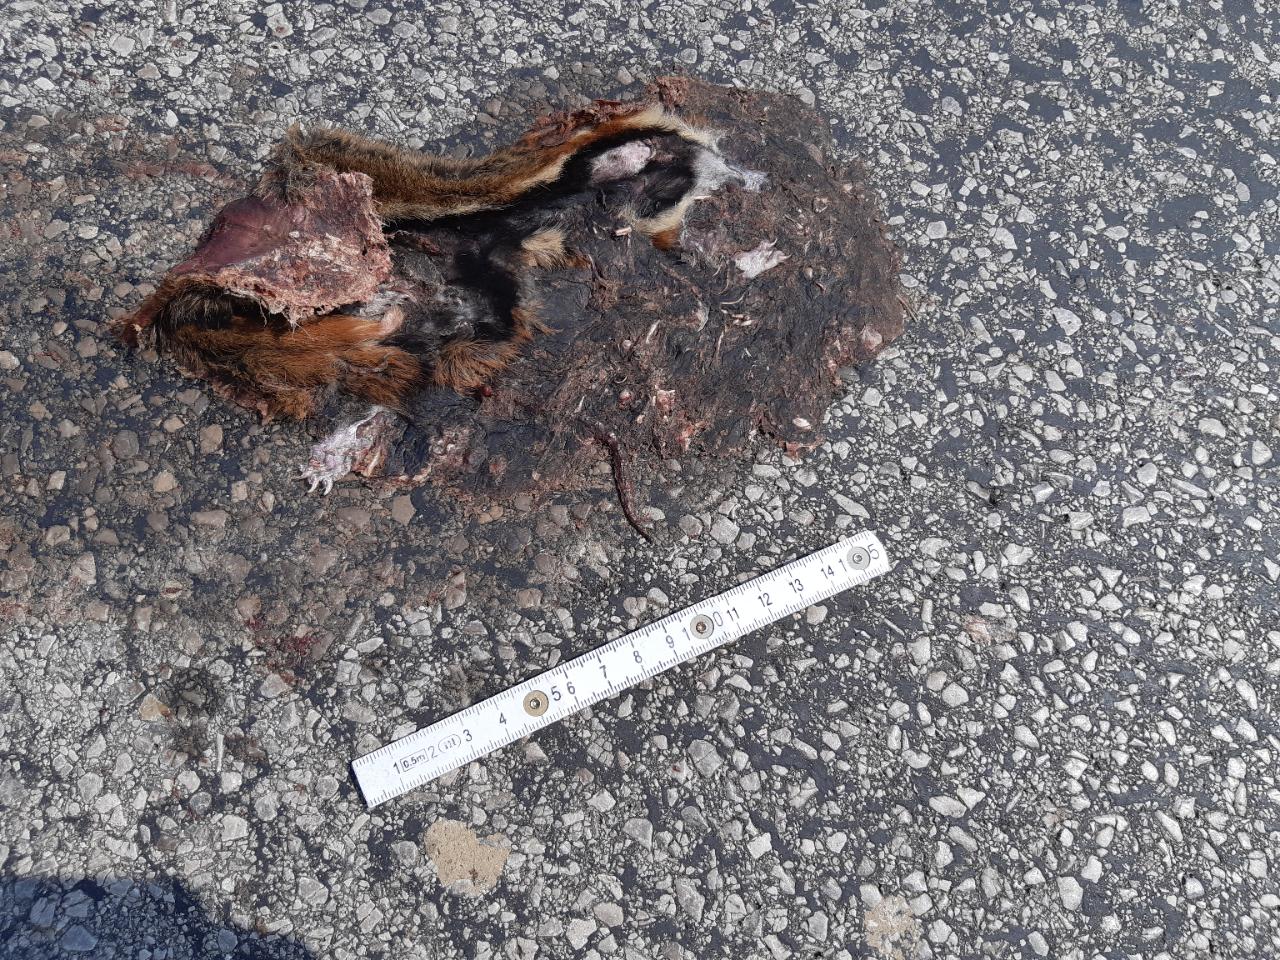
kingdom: Animalia
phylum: Chordata
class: Mammalia
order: Rodentia
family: Cricetidae
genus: Cricetus
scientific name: Cricetus cricetus
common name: Common hamster
